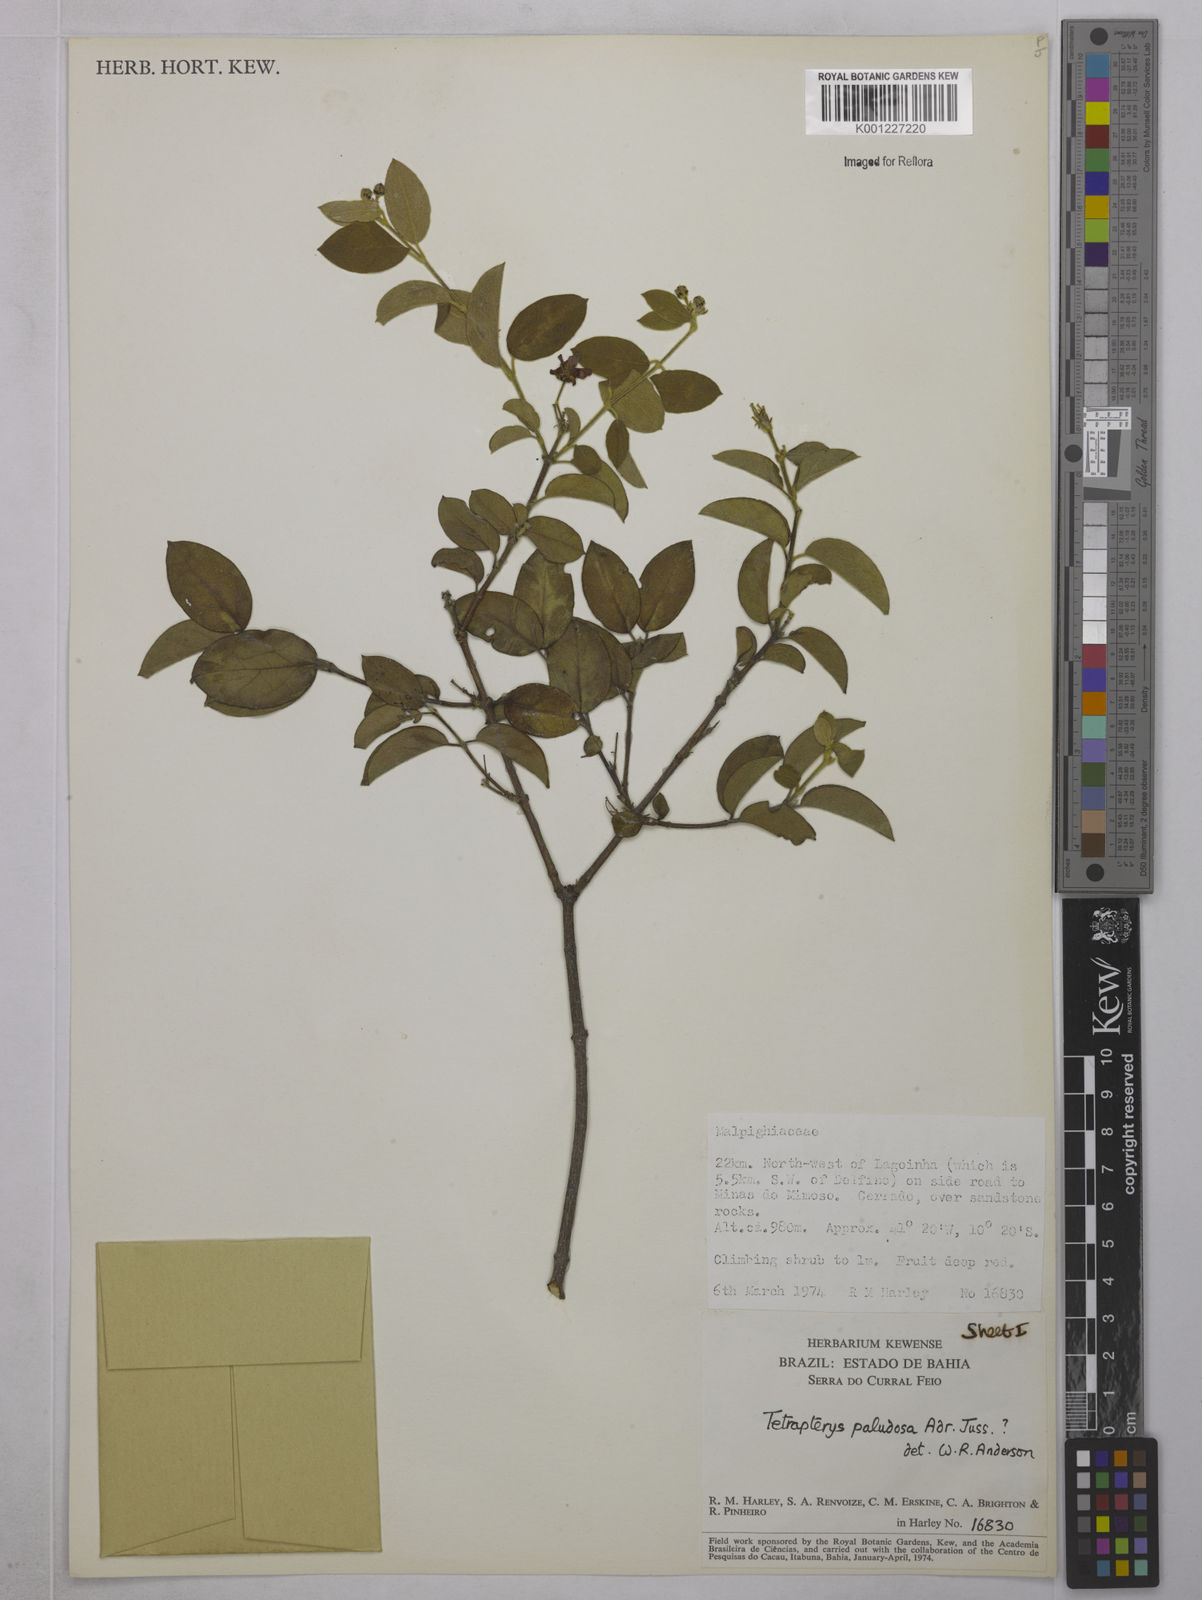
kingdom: Plantae
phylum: Tracheophyta
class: Magnoliopsida
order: Malpighiales
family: Malpighiaceae
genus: Glicophyllum
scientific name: Glicophyllum paludosum
